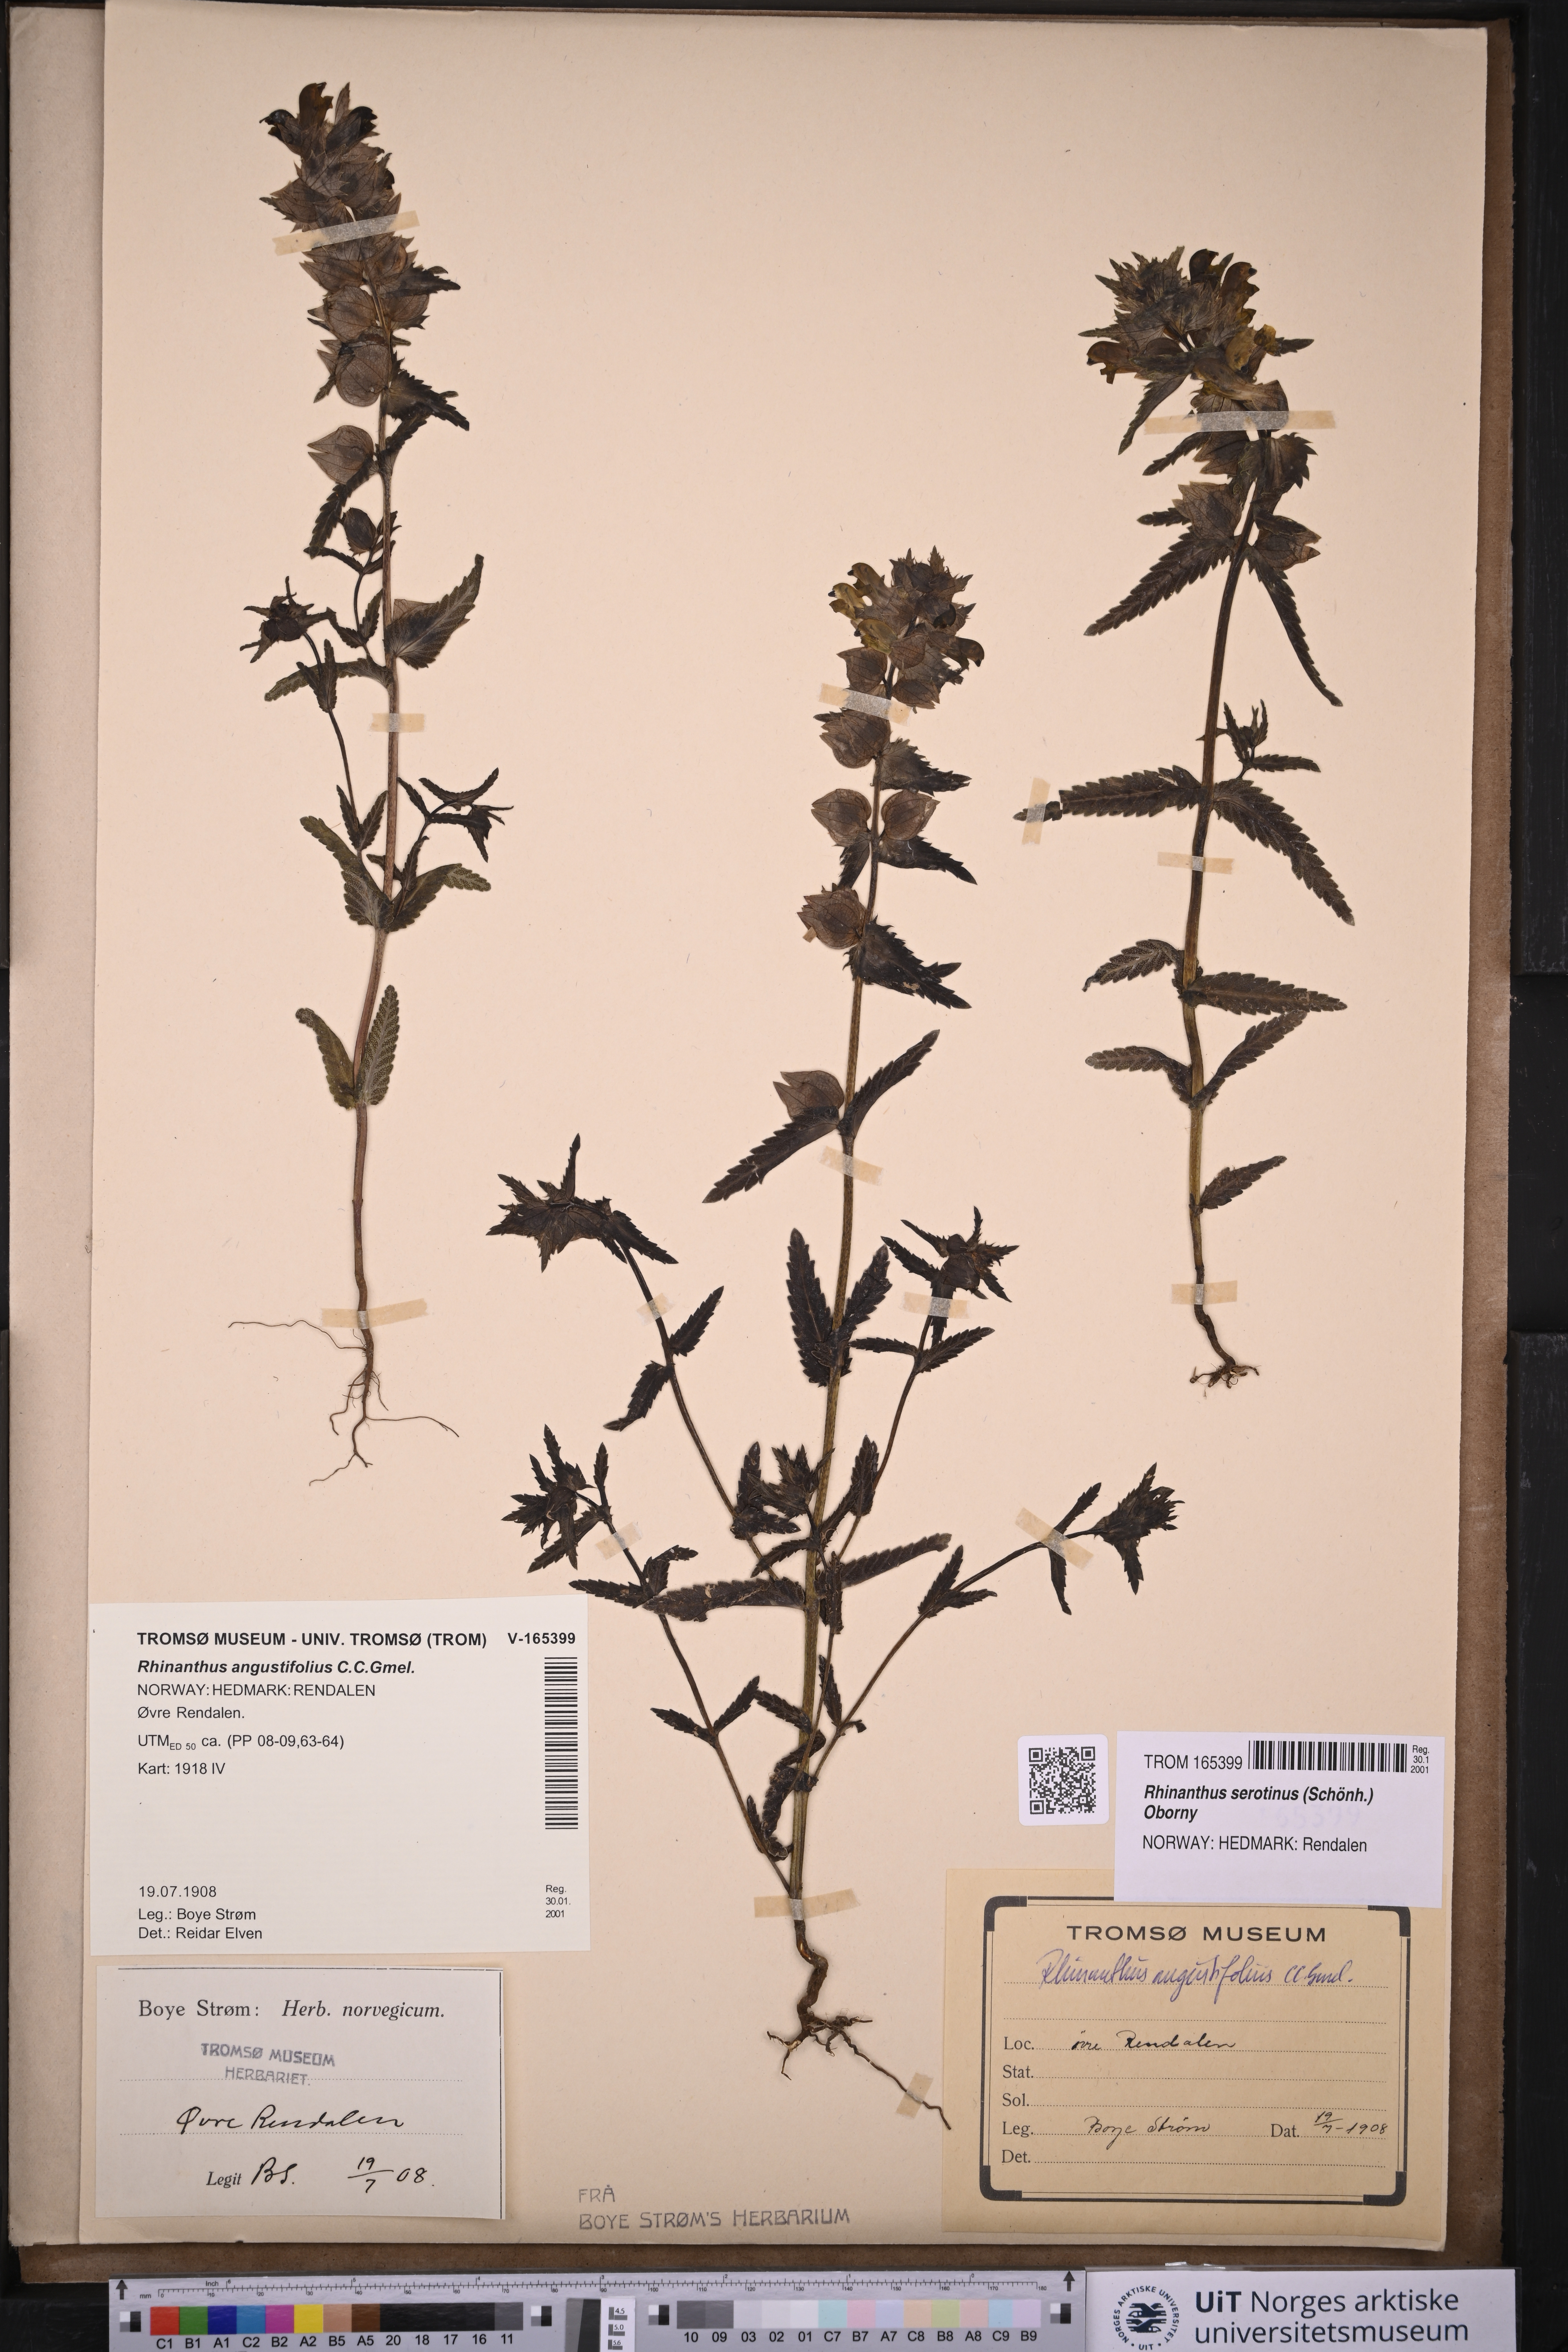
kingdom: Plantae
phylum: Tracheophyta
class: Magnoliopsida
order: Lamiales
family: Orobanchaceae
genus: Rhinanthus
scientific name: Rhinanthus serotinus
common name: Late-flowering yellow rattle
